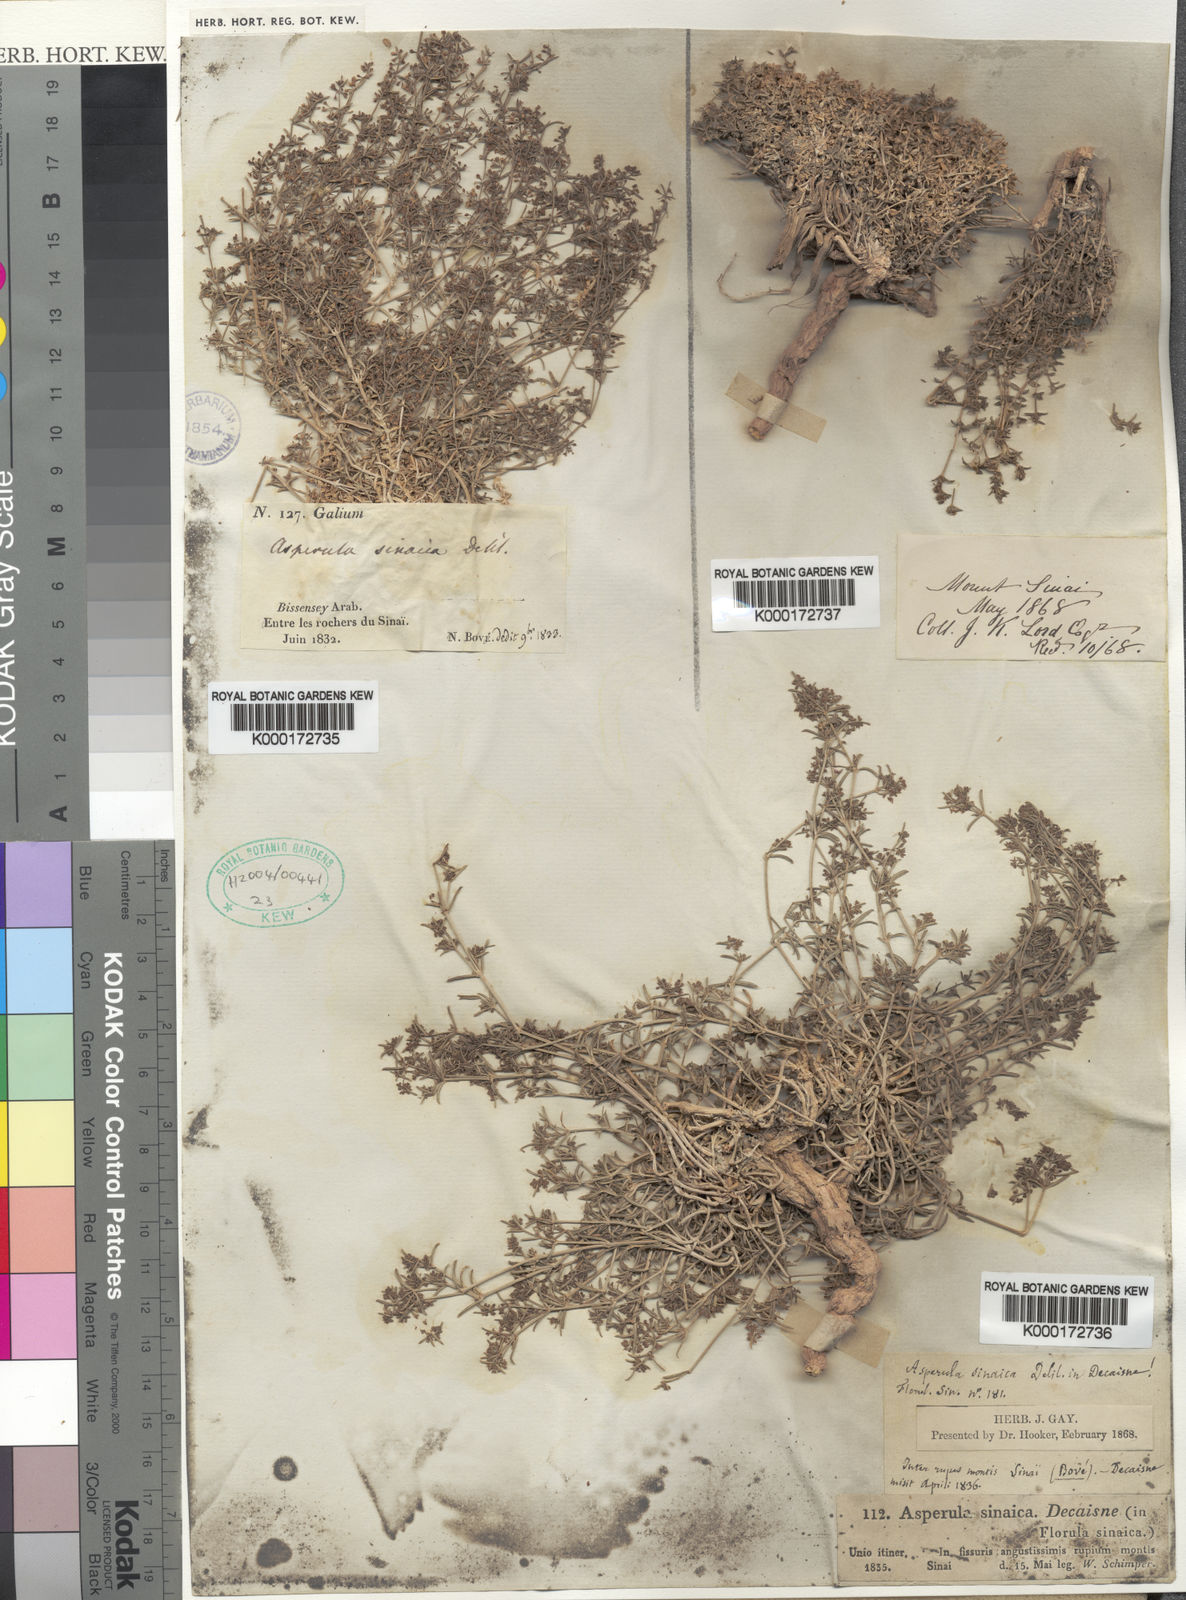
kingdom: Plantae
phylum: Tracheophyta
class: Magnoliopsida
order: Gentianales
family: Rubiaceae
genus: Galium
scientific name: Galium sinaicum
